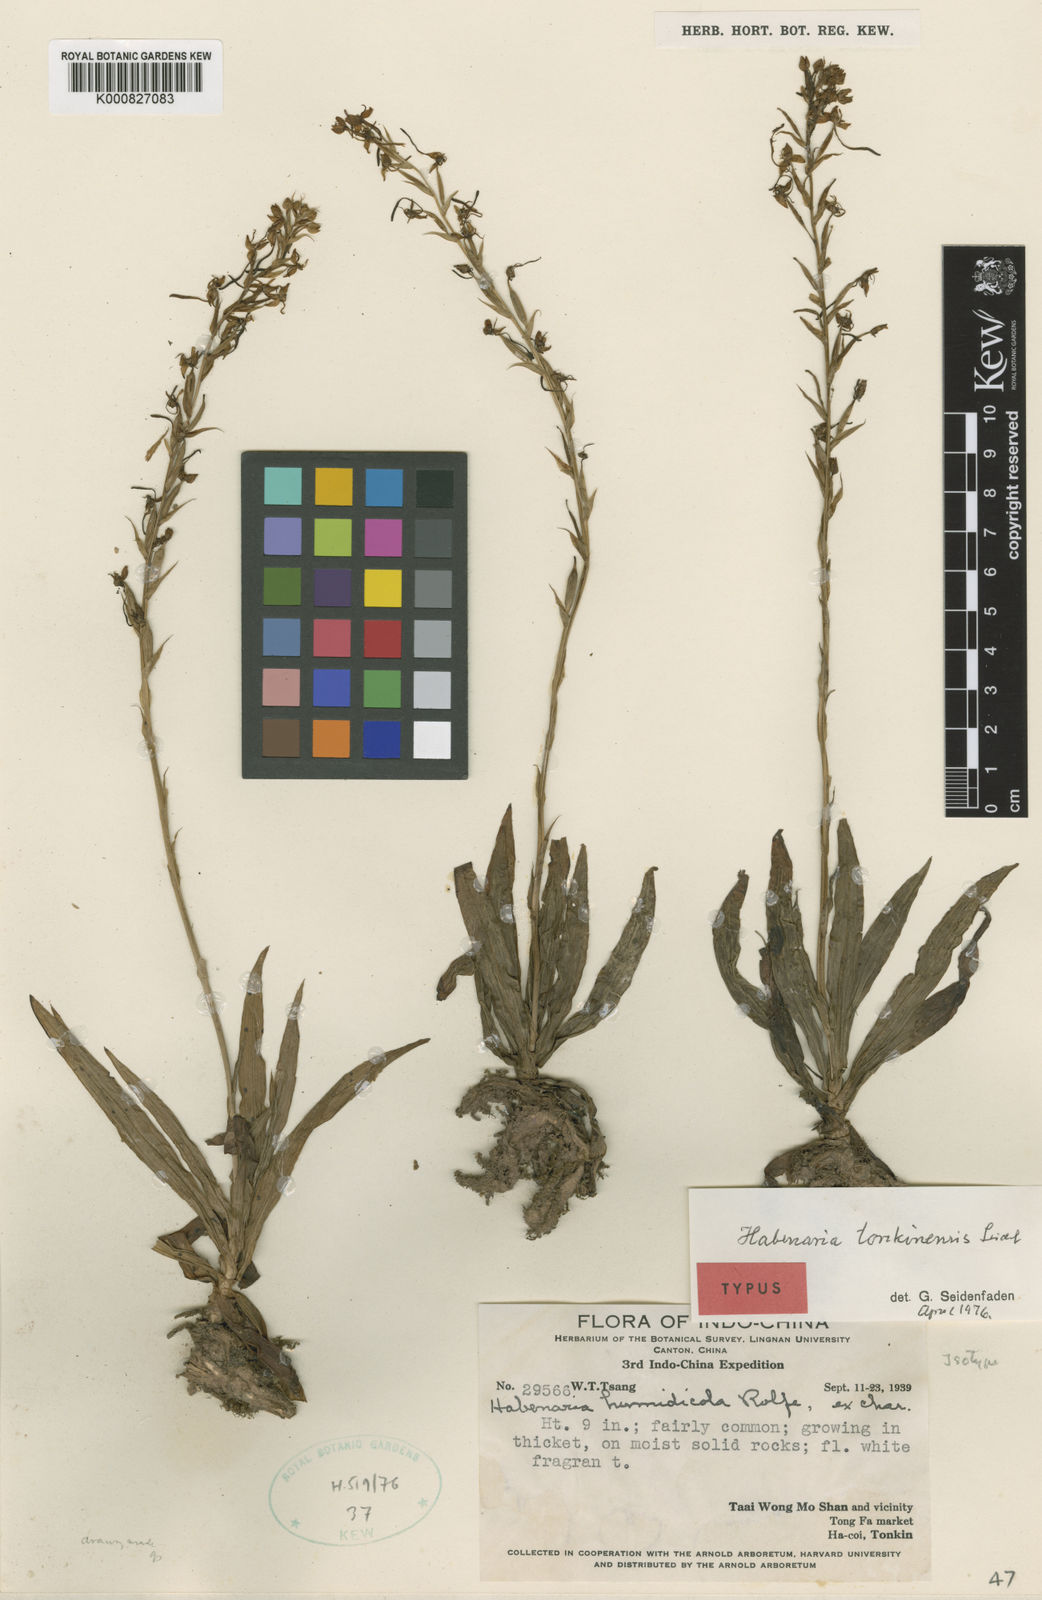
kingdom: Plantae
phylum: Tracheophyta
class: Liliopsida
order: Asparagales
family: Orchidaceae
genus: Habenaria
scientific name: Habenaria tonkinensis
